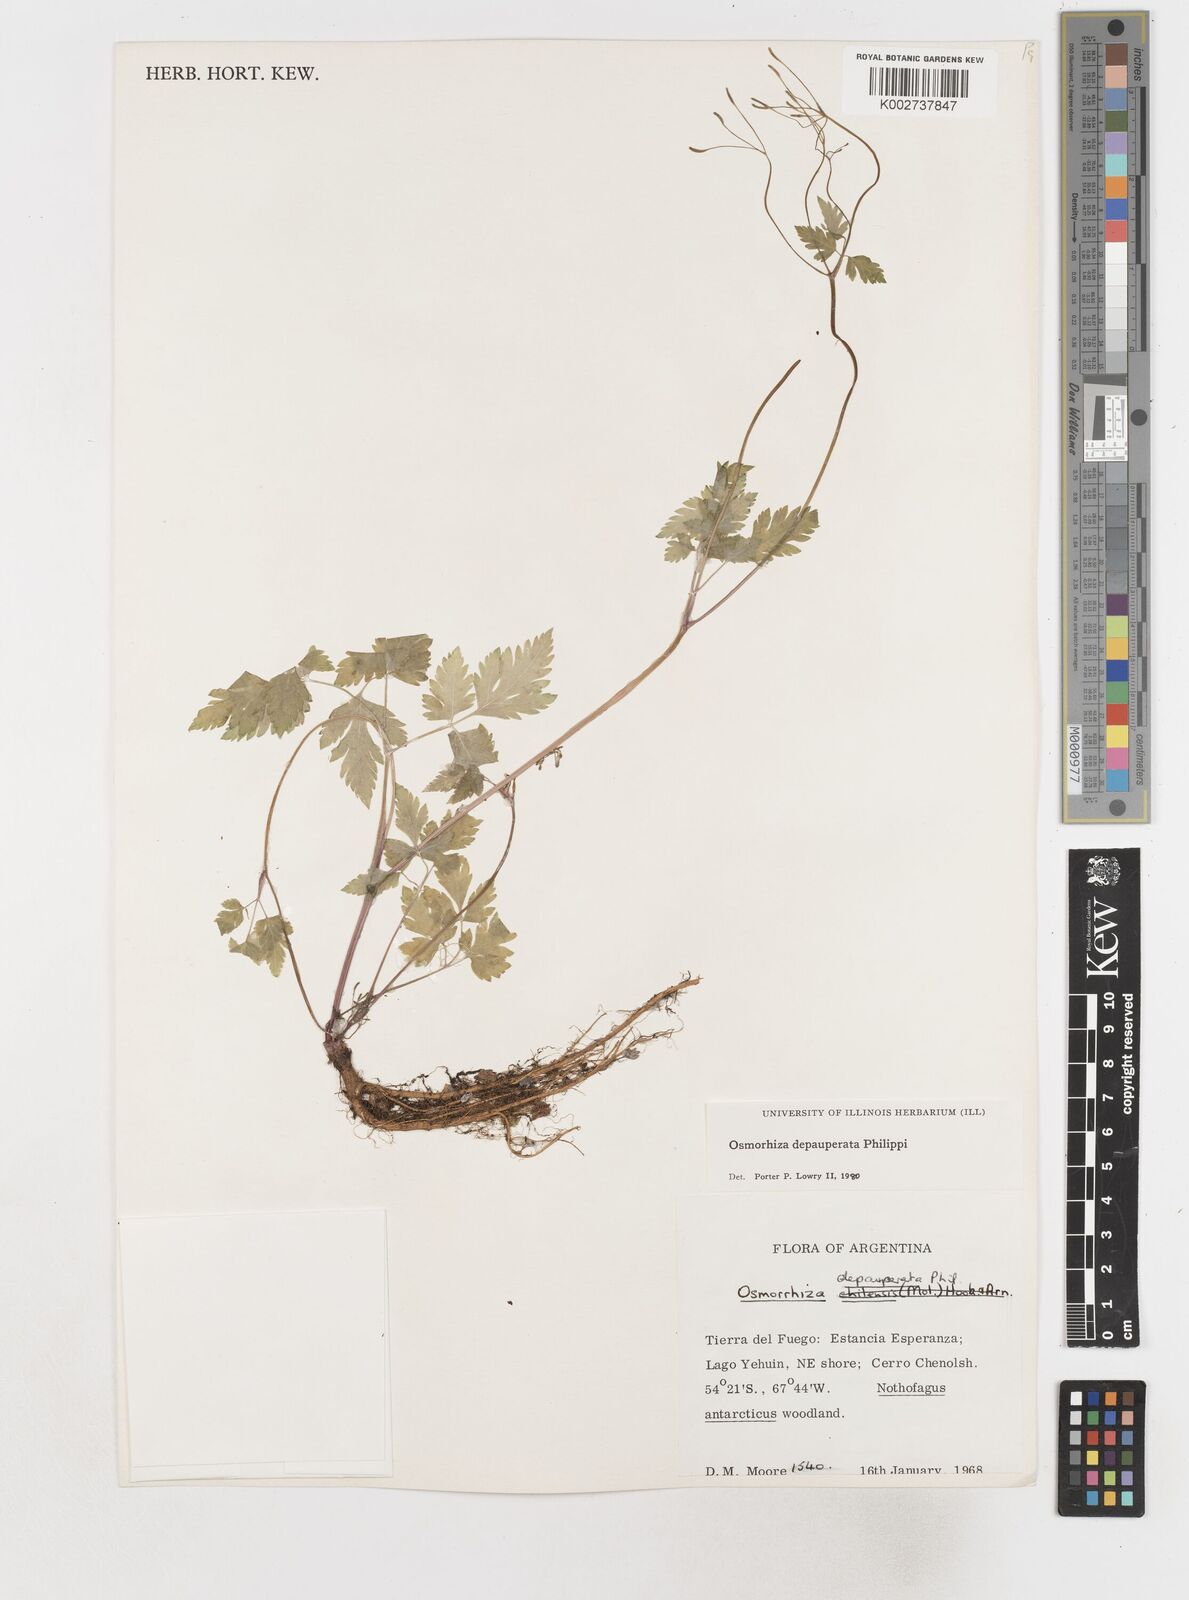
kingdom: Plantae
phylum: Tracheophyta
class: Magnoliopsida
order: Apiales
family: Apiaceae
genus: Osmorhiza
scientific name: Osmorhiza depauperata
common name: Blunt sweet cicely
